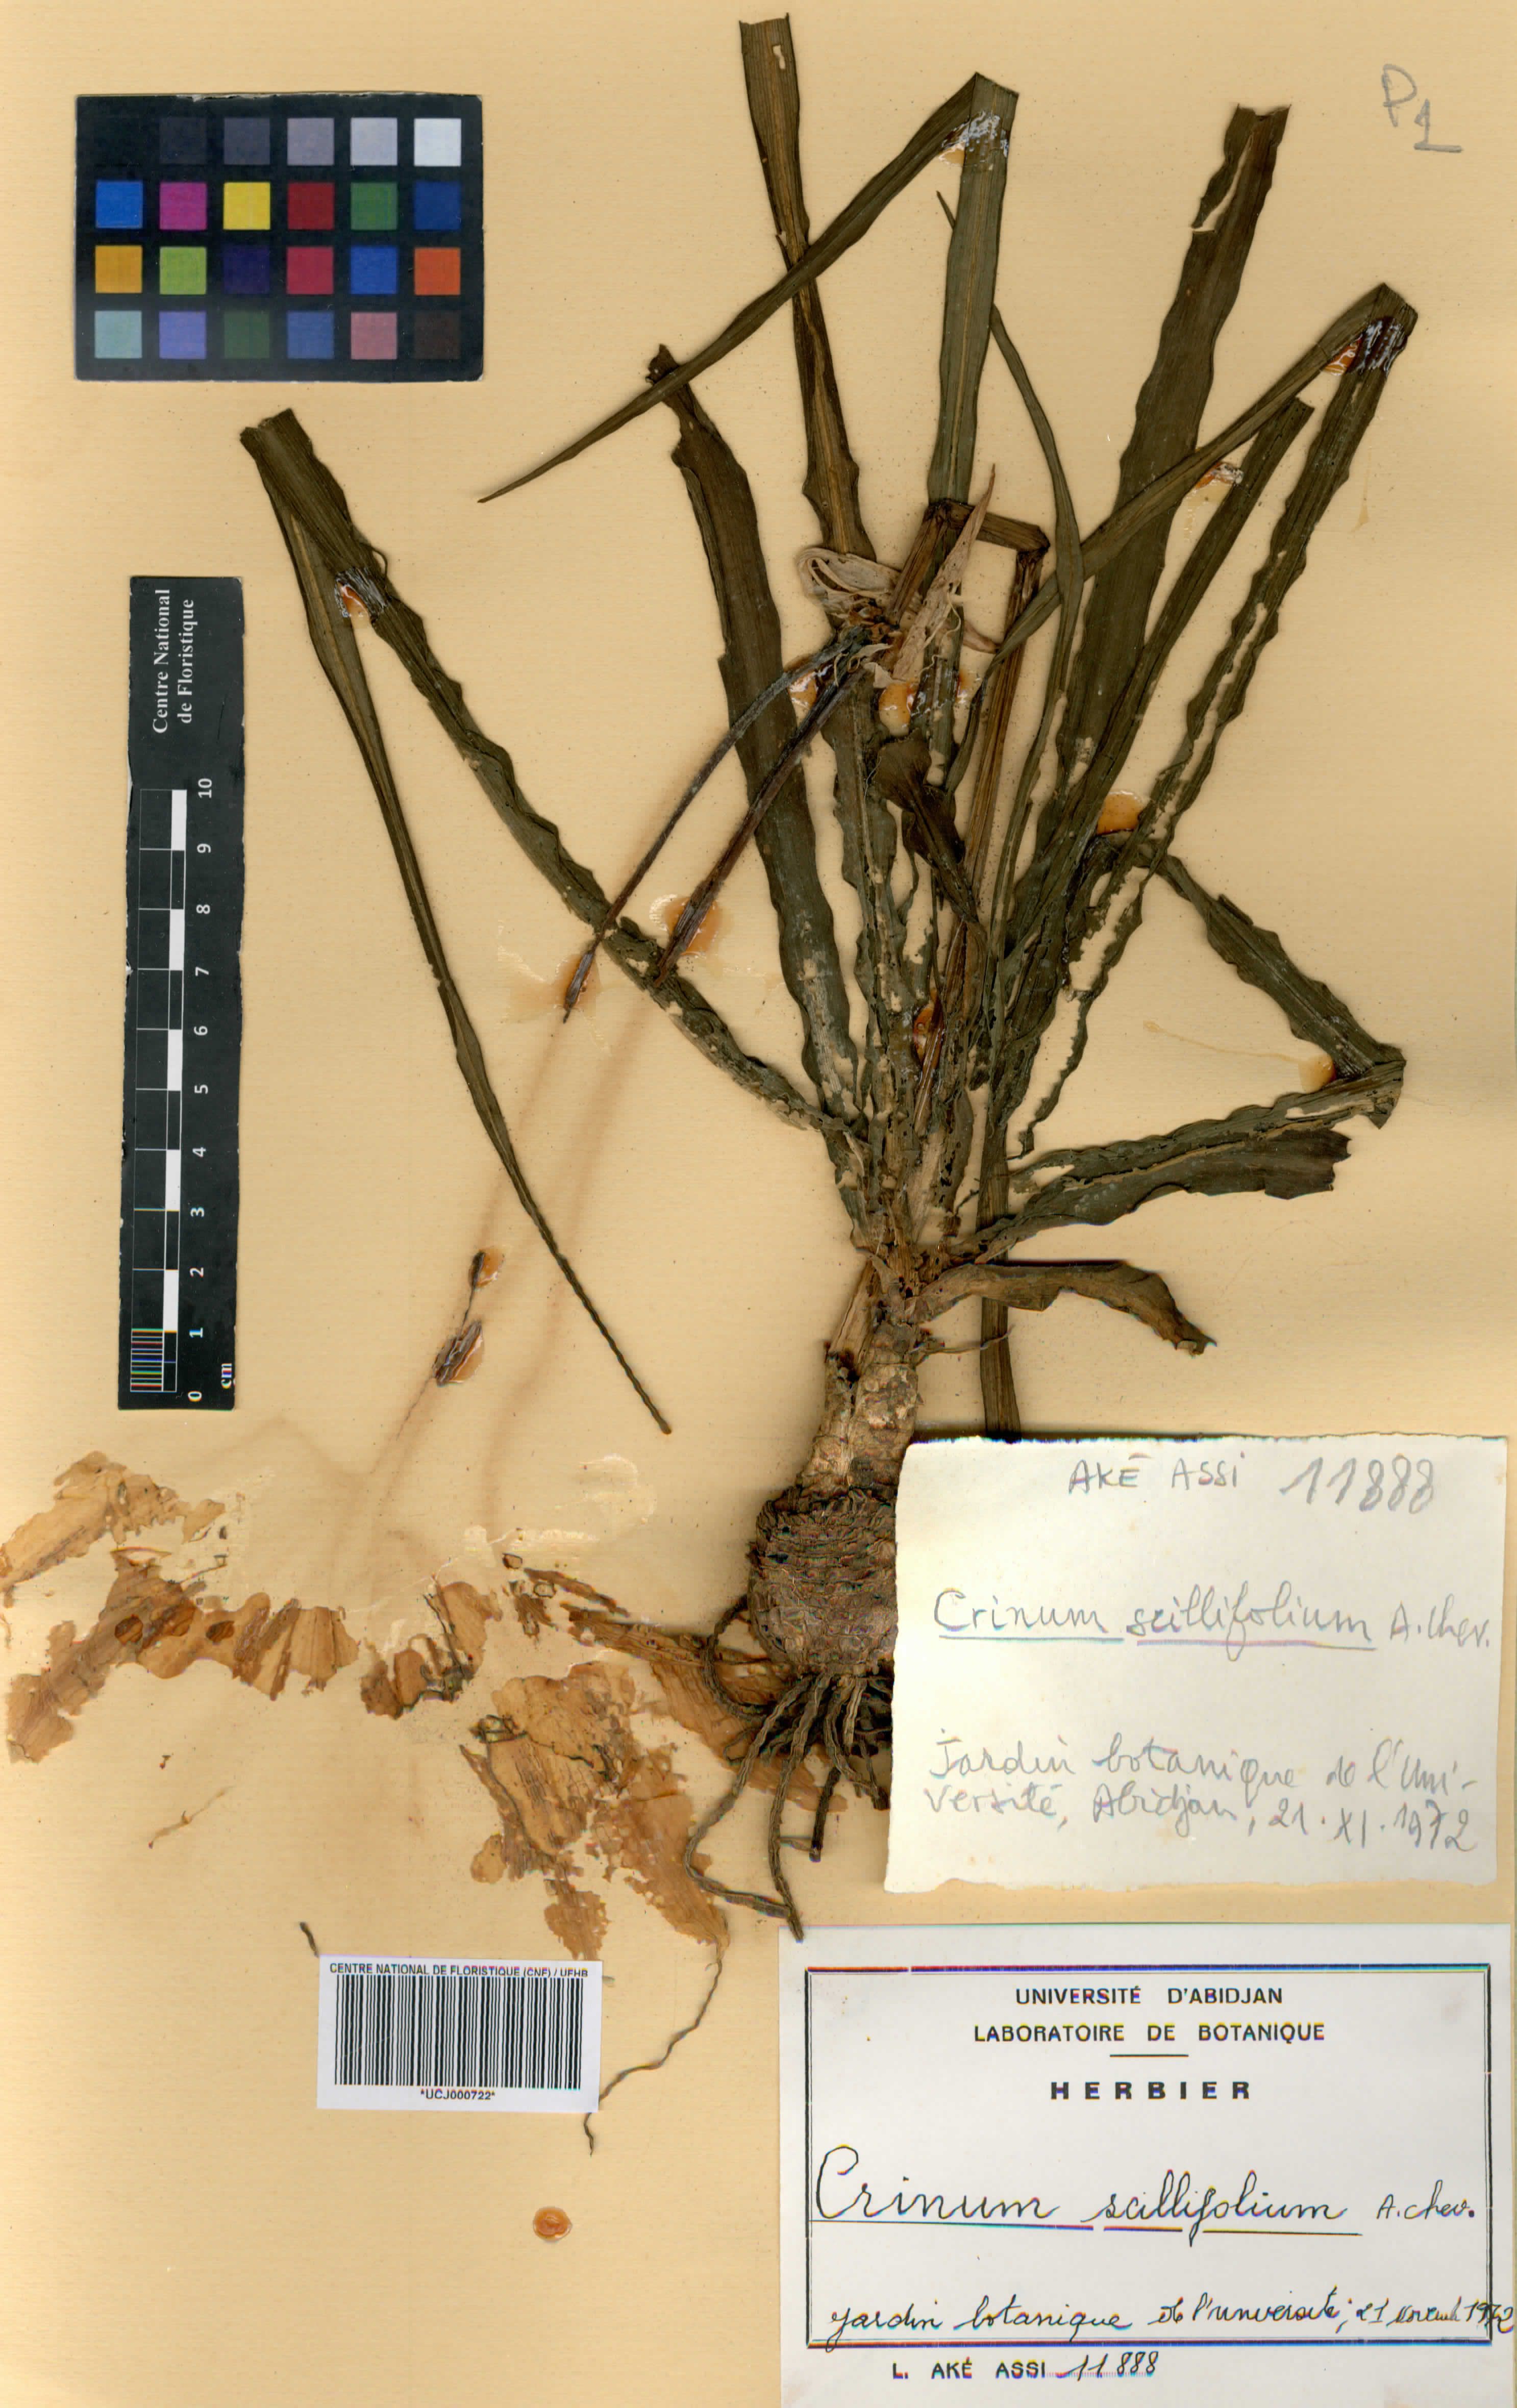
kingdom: Plantae
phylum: Tracheophyta
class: Liliopsida
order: Asparagales
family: Amaryllidaceae
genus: Crinum
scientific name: Crinum scillifolium
